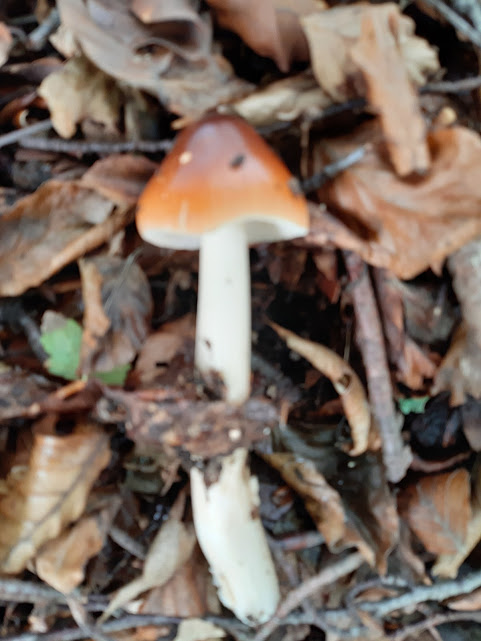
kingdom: Fungi
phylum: Basidiomycota
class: Agaricomycetes
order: Agaricales
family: Amanitaceae
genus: Amanita
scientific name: Amanita fulva
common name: brun kam-fluesvamp
